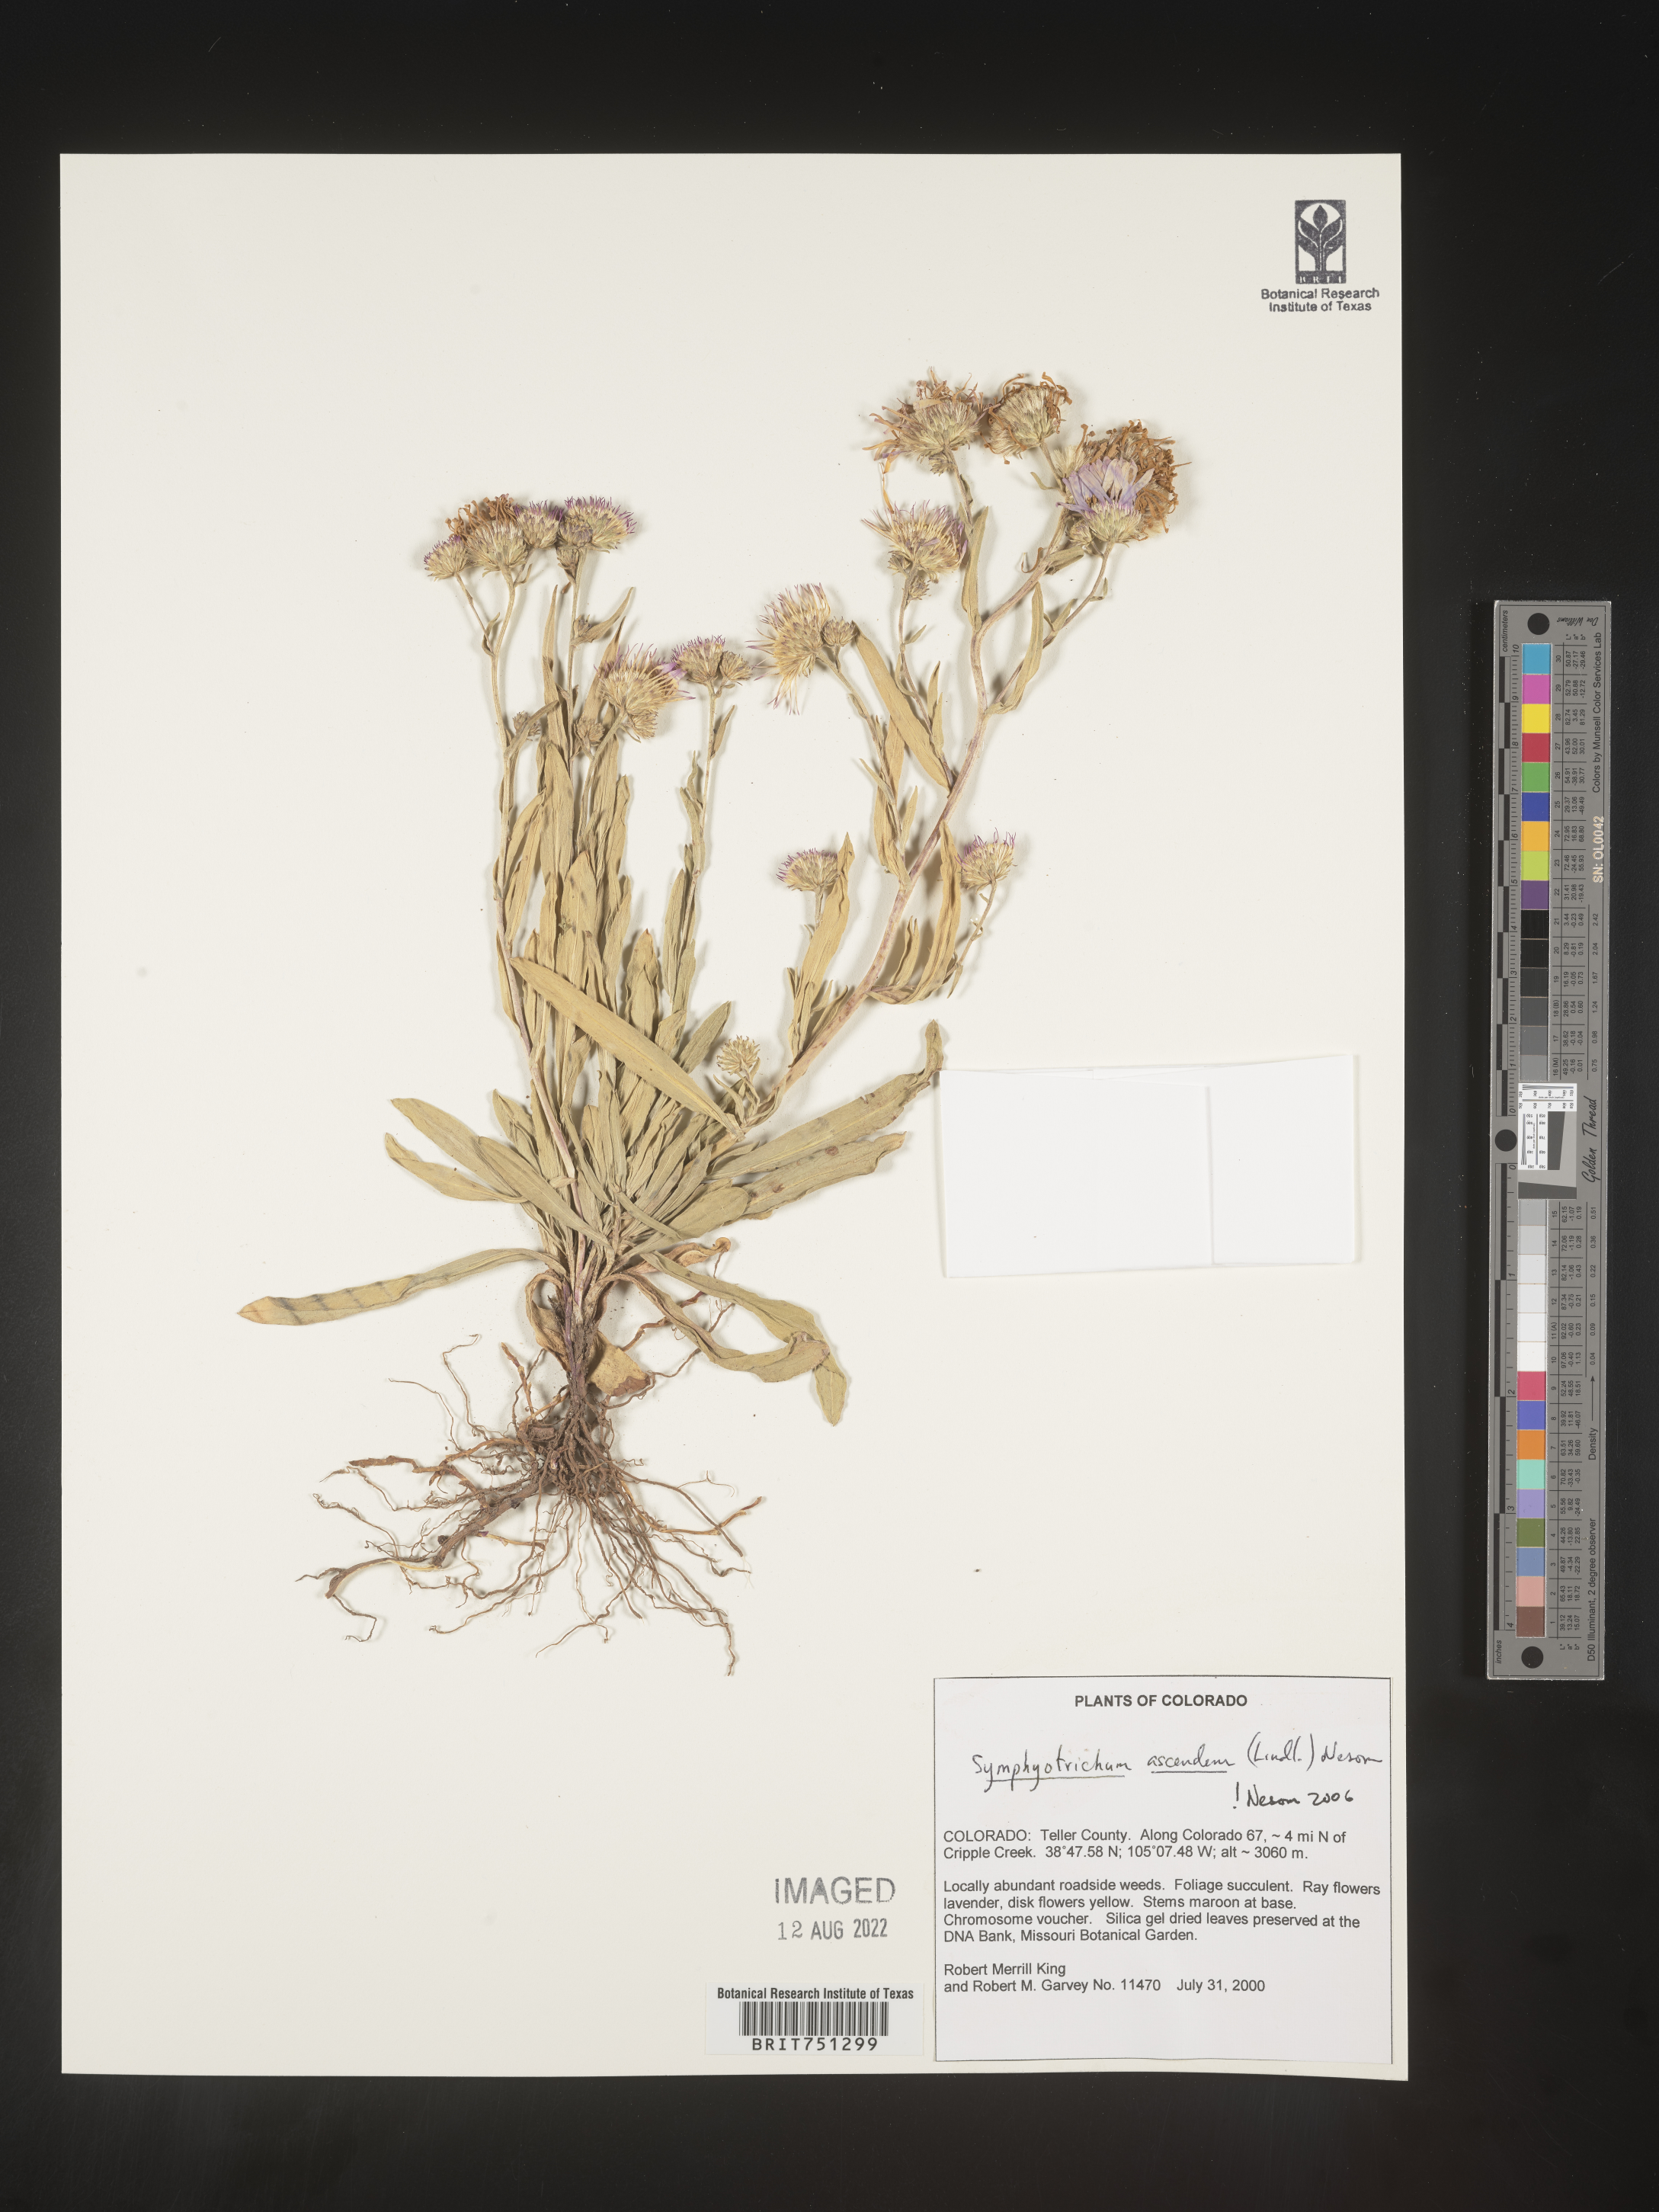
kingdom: Plantae
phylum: Tracheophyta
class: Magnoliopsida
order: Asterales
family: Asteraceae
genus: Symphyotrichum
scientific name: Symphyotrichum ascendens
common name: Intermountain aster
